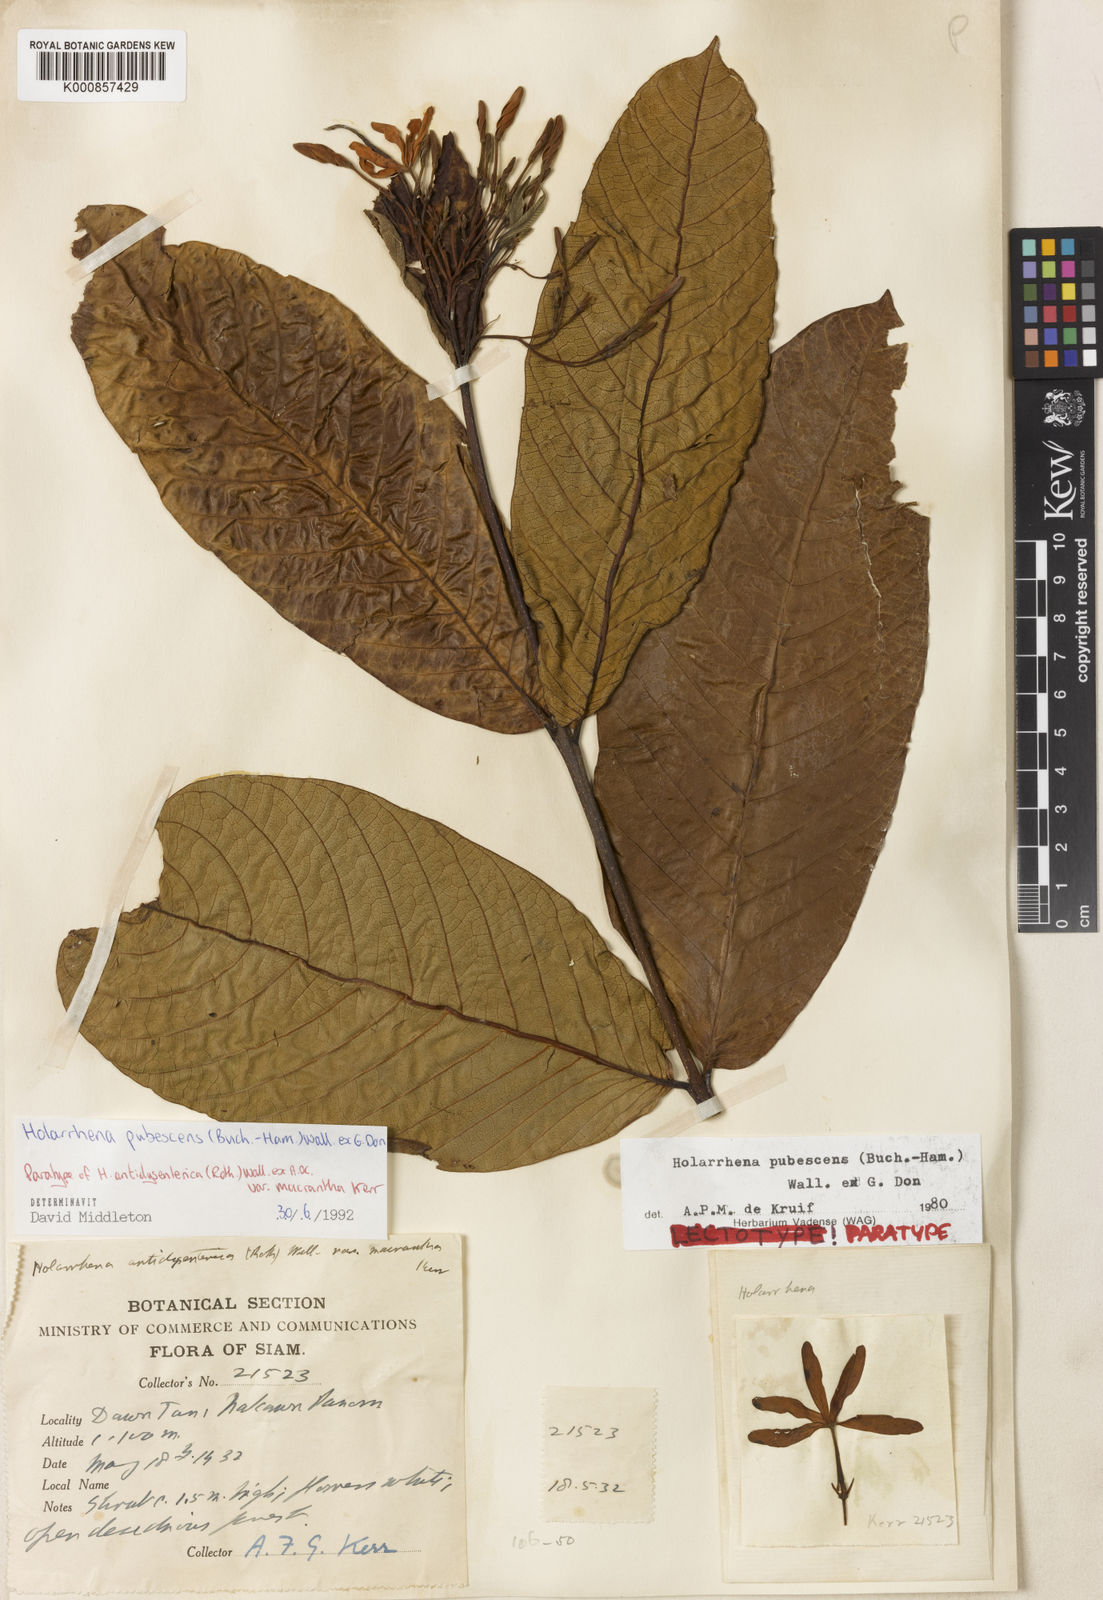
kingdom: Plantae
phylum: Tracheophyta
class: Magnoliopsida
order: Gentianales
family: Apocynaceae
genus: Holarrhena
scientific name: Holarrhena pubescens
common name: Bitter oleander
